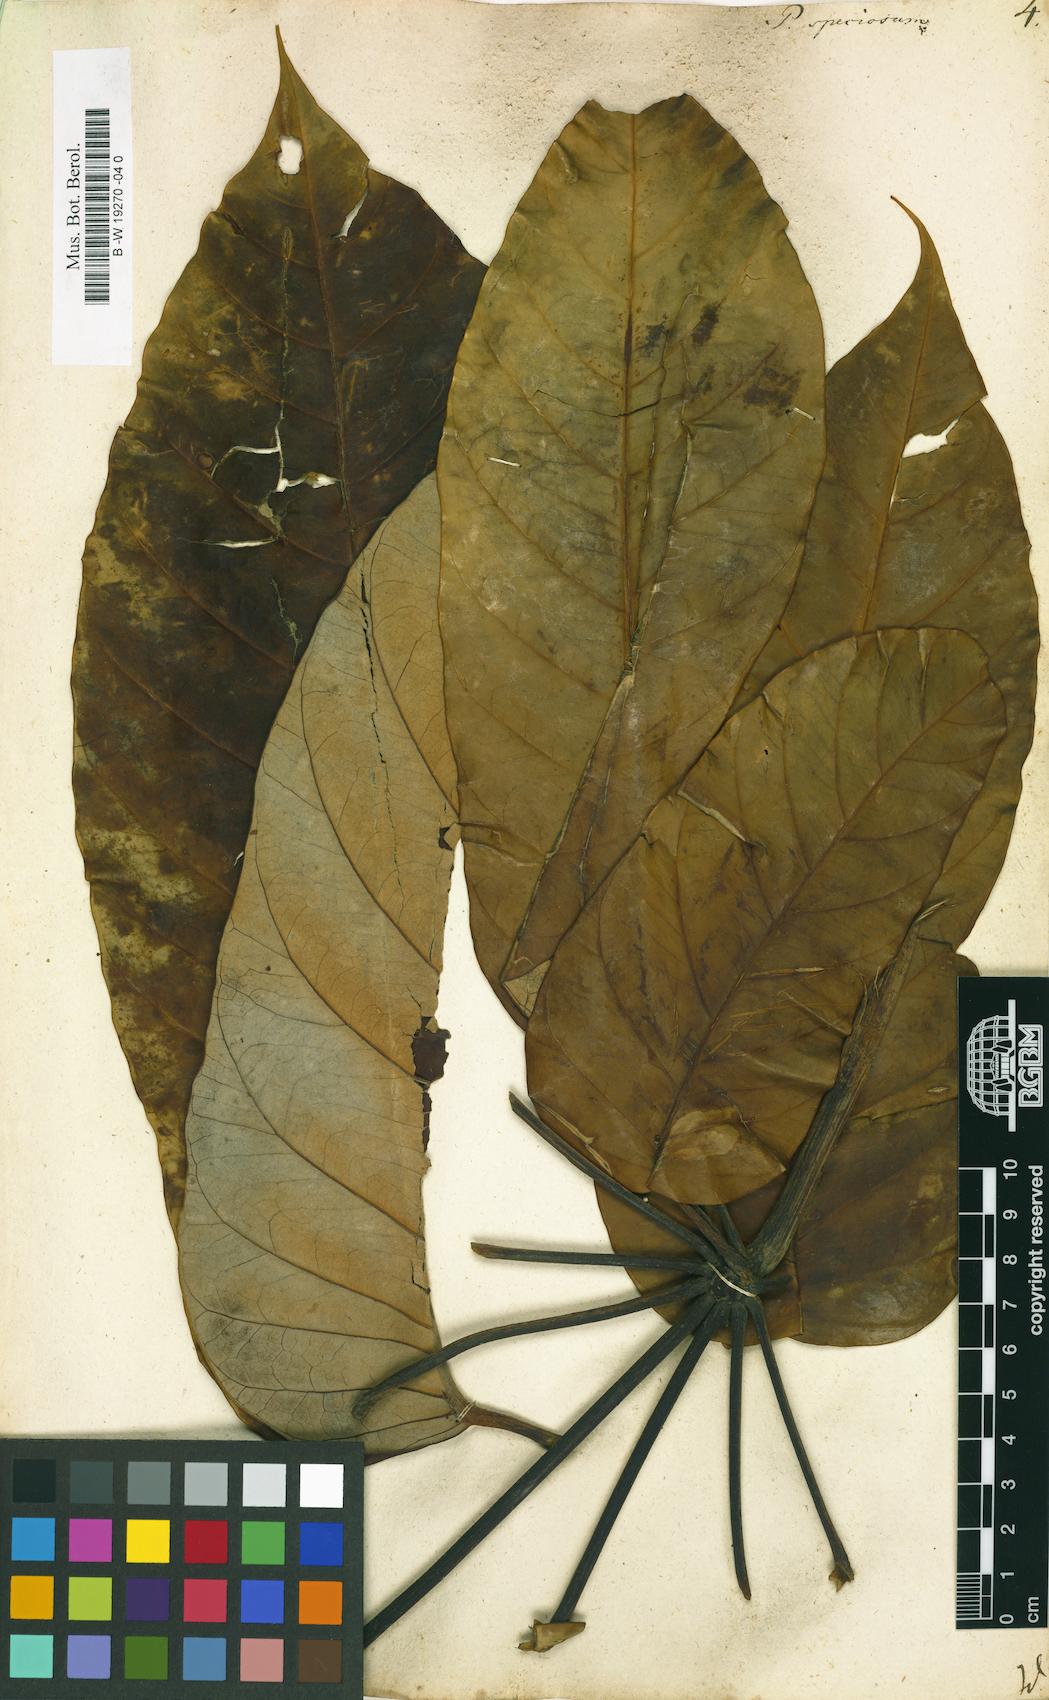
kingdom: Plantae
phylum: Tracheophyta
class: Magnoliopsida
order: Apiales
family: Araliaceae
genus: Didymopanax
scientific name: Didymopanax morototoni
